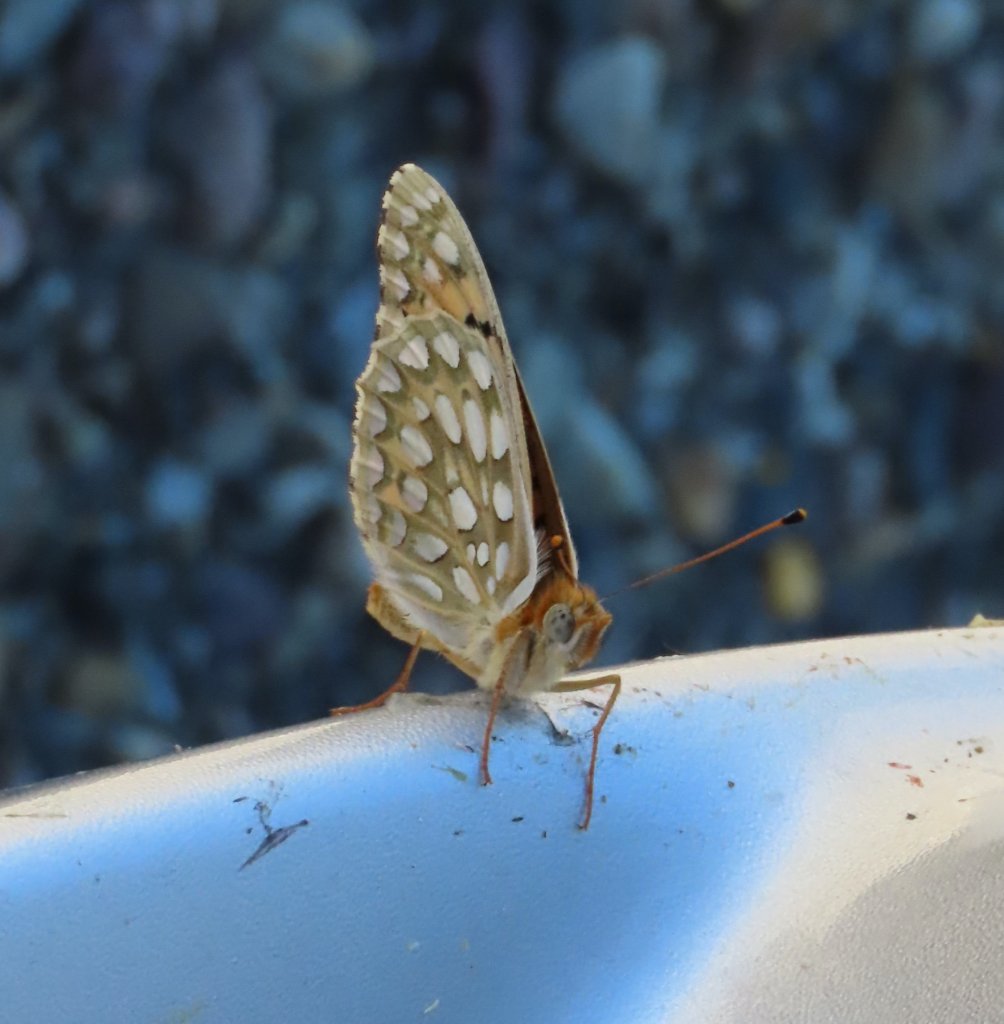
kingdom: Animalia
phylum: Arthropoda
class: Insecta
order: Lepidoptera
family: Nymphalidae
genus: Speyeria
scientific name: Speyeria callippe
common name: Callippe Fritillary
